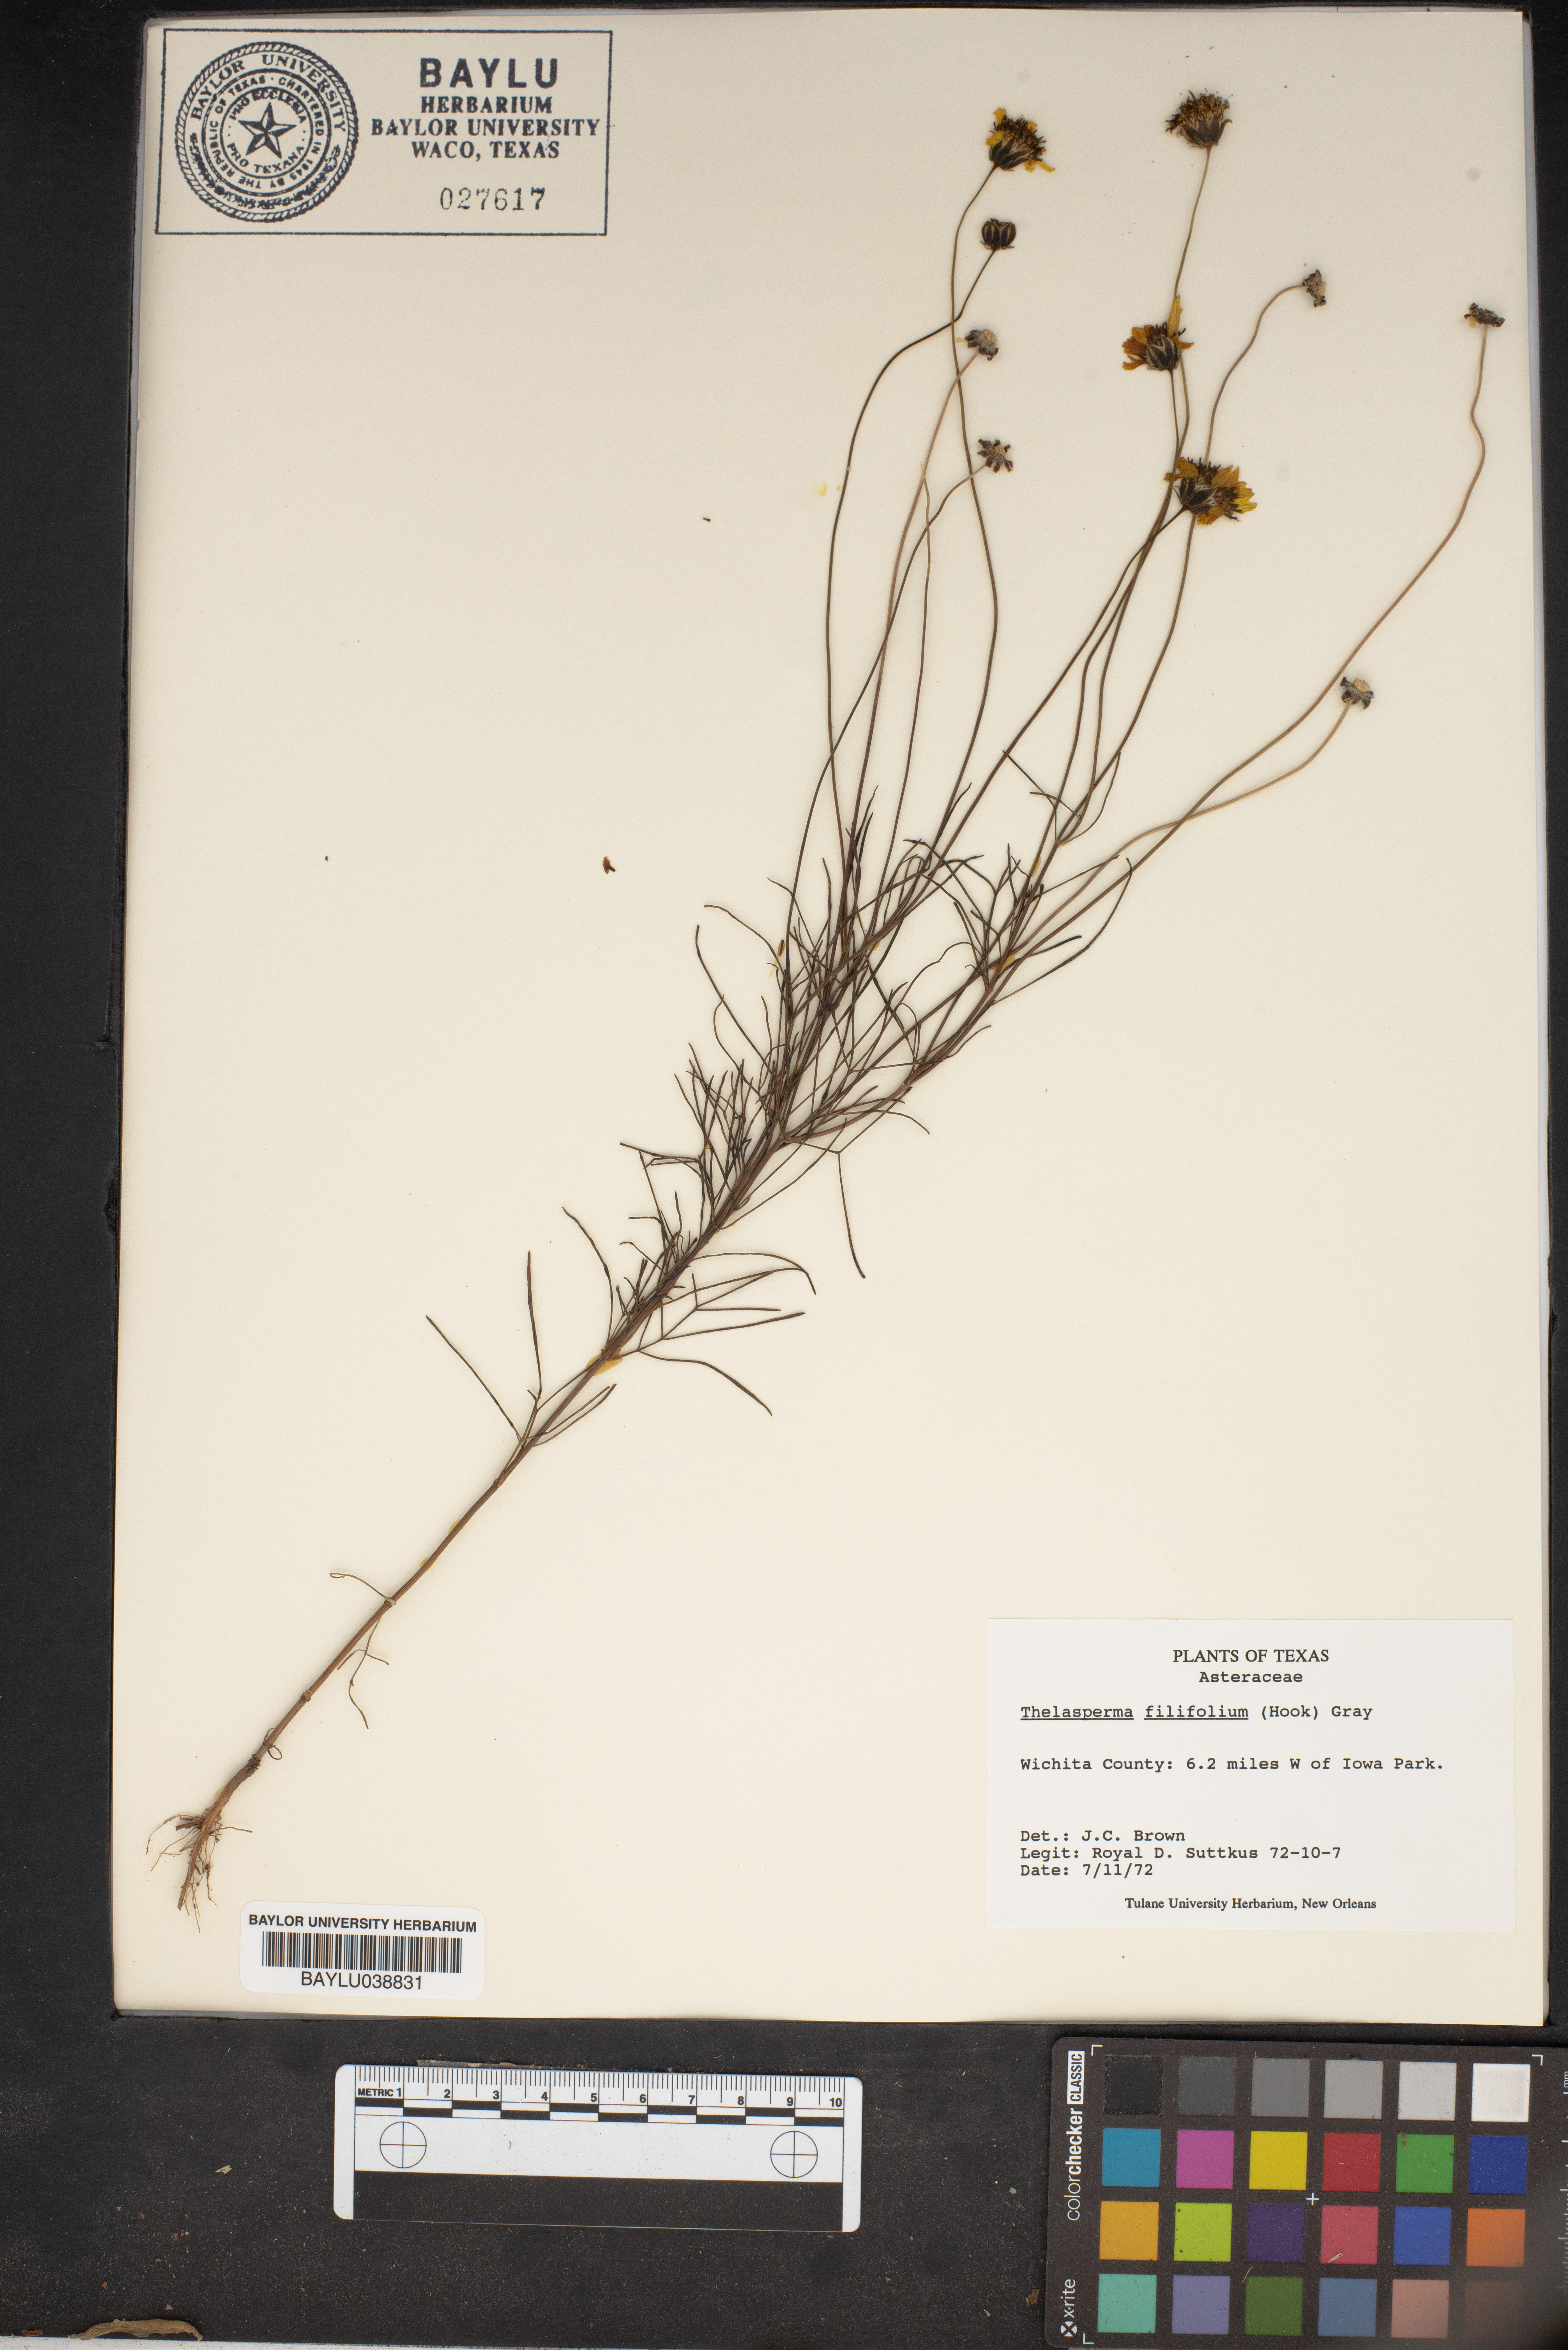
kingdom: Plantae
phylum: Tracheophyta
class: Magnoliopsida
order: Asterales
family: Asteraceae
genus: Thelesperma
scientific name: Thelesperma filifolium
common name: Stiff greenthread
